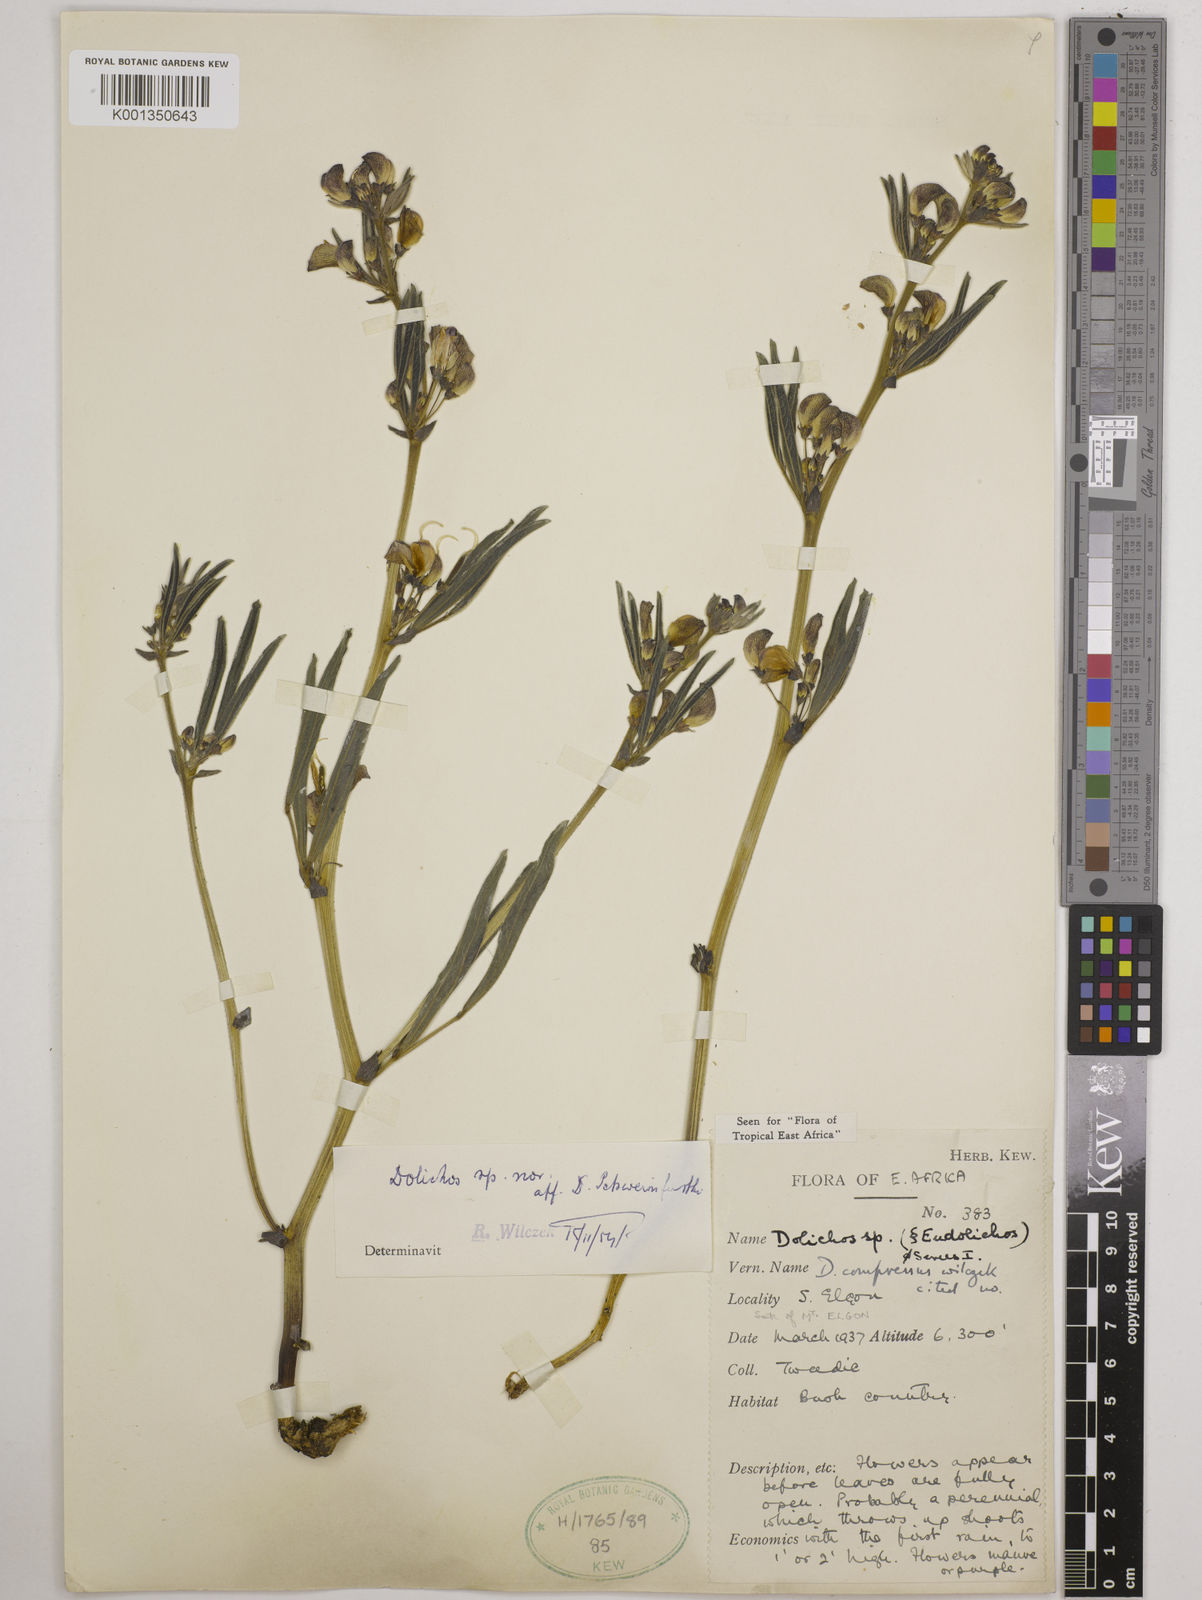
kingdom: Plantae
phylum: Tracheophyta
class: Magnoliopsida
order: Fabales
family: Fabaceae
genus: Dolichos
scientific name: Dolichos compressus
